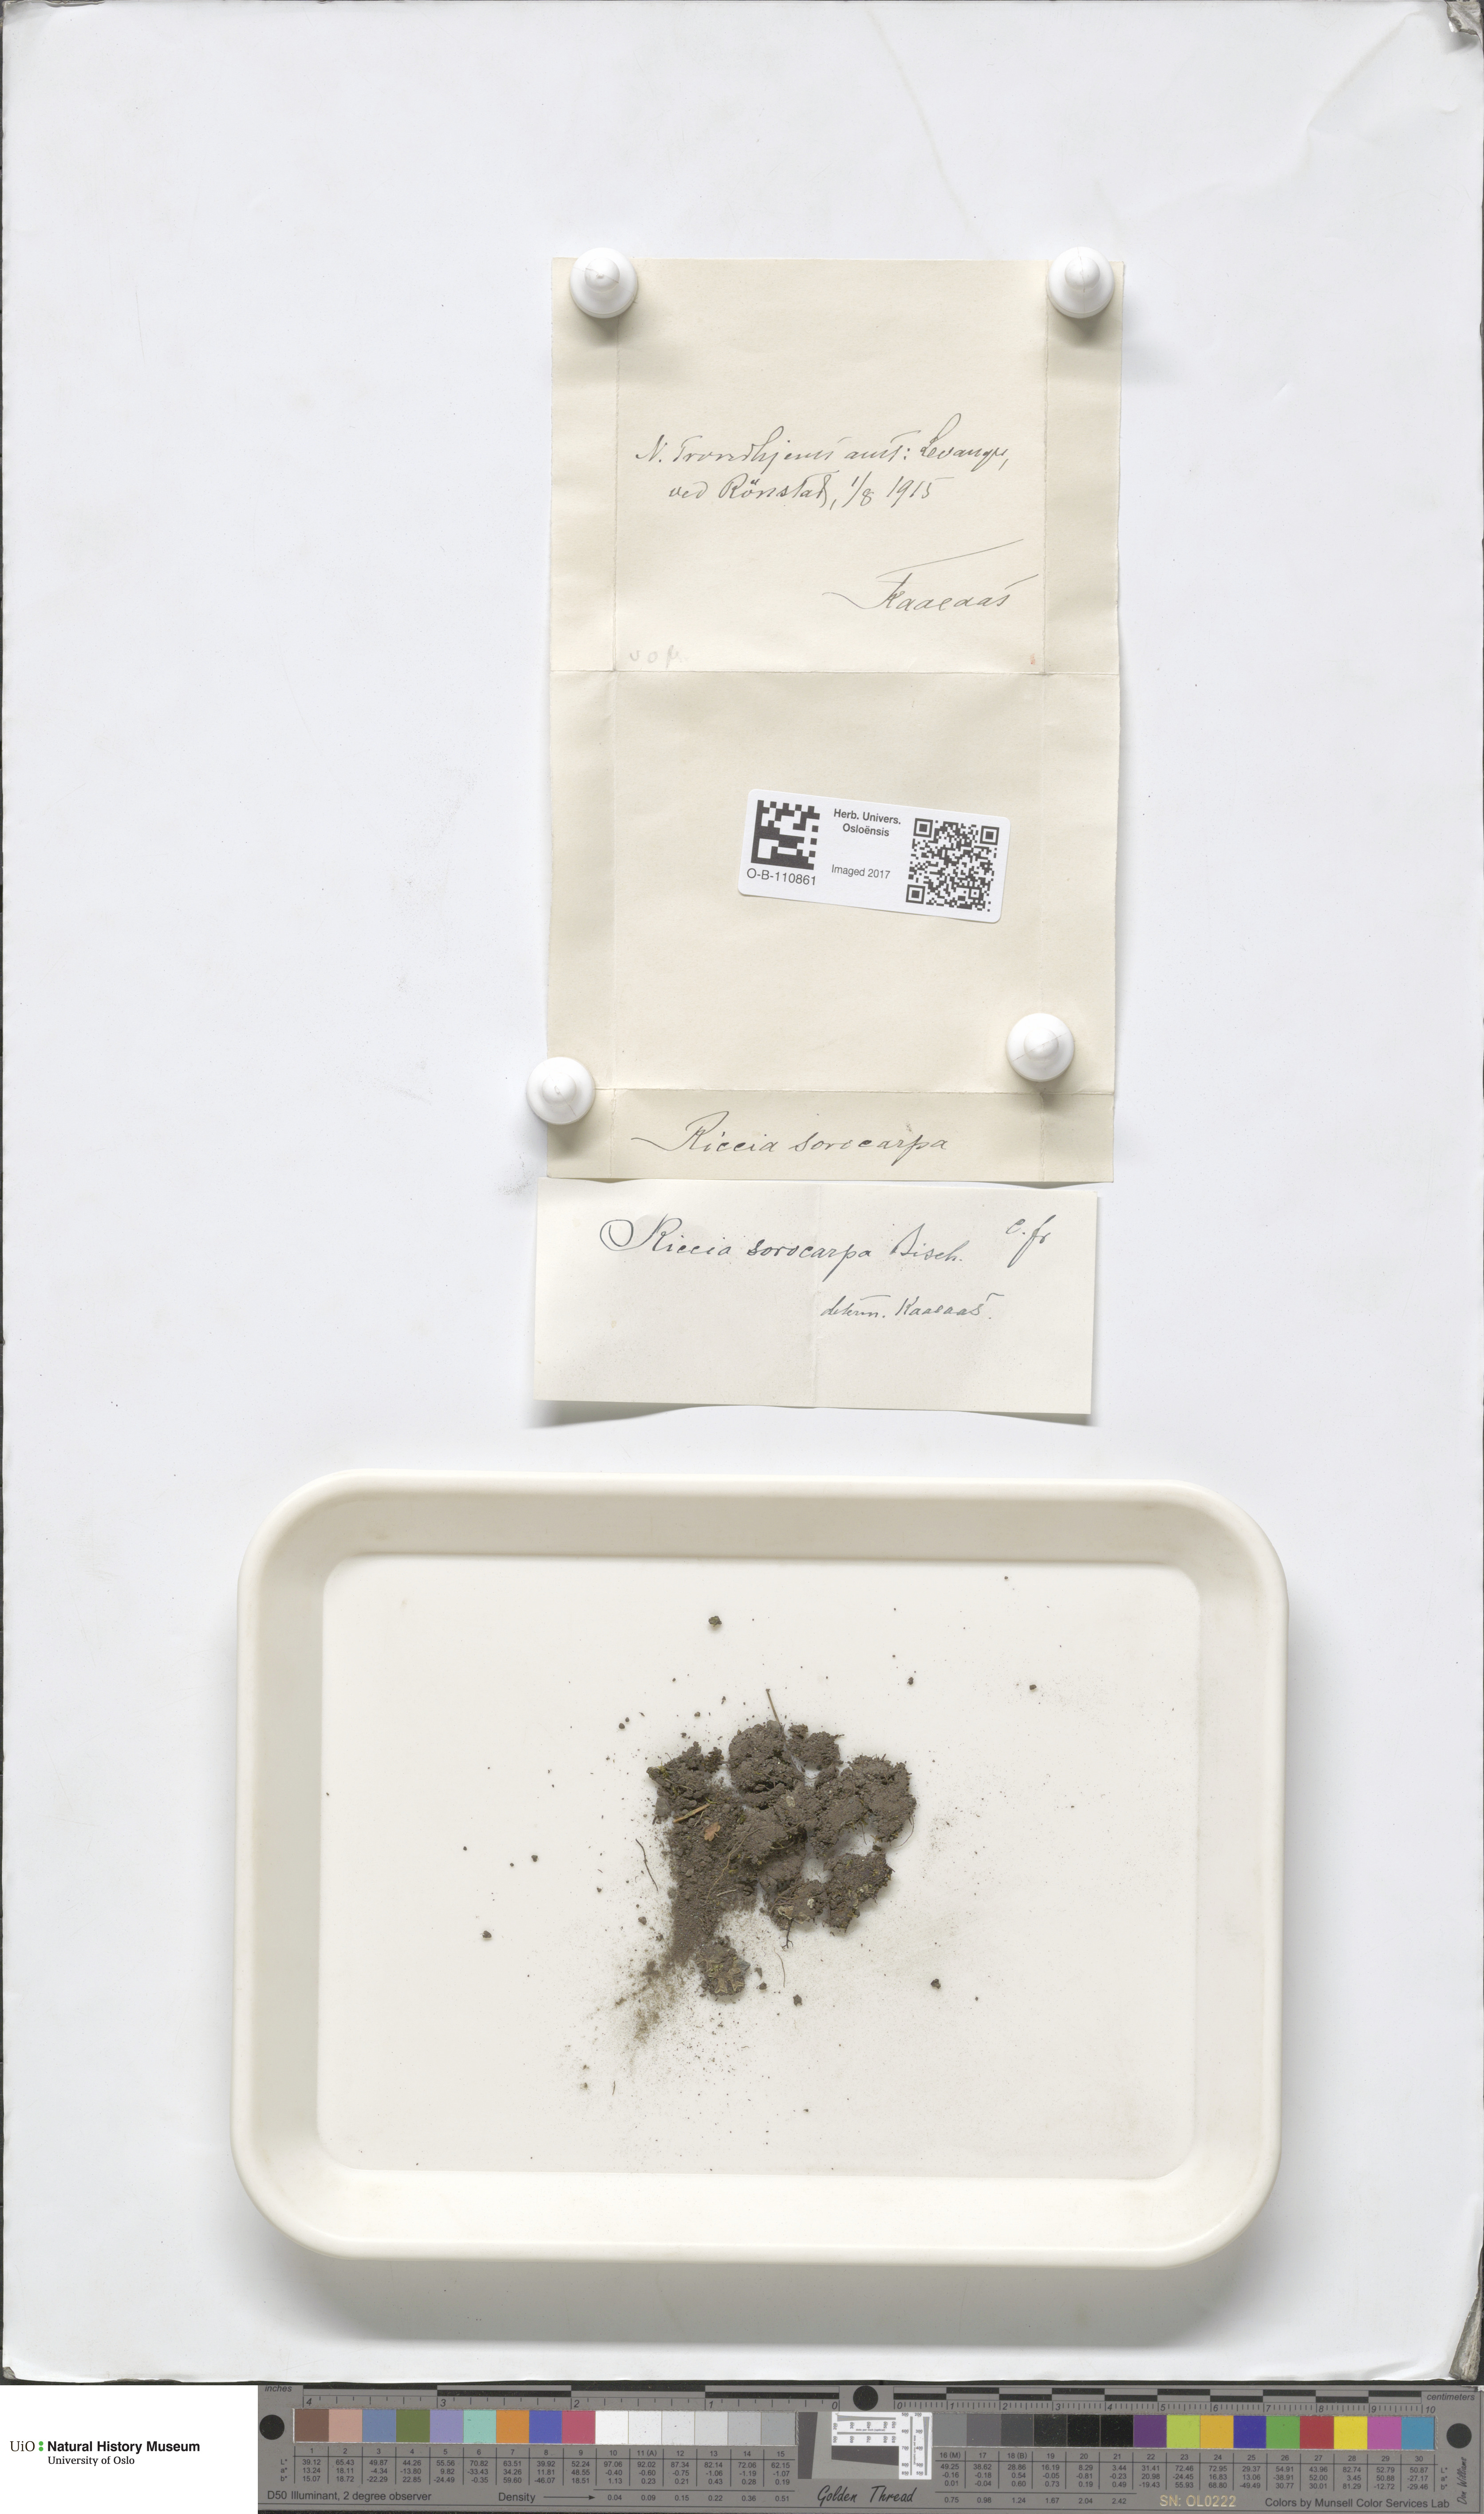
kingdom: Plantae
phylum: Marchantiophyta
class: Marchantiopsida
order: Marchantiales
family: Ricciaceae
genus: Riccia
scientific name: Riccia sorocarpa
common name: Common crystalwort
